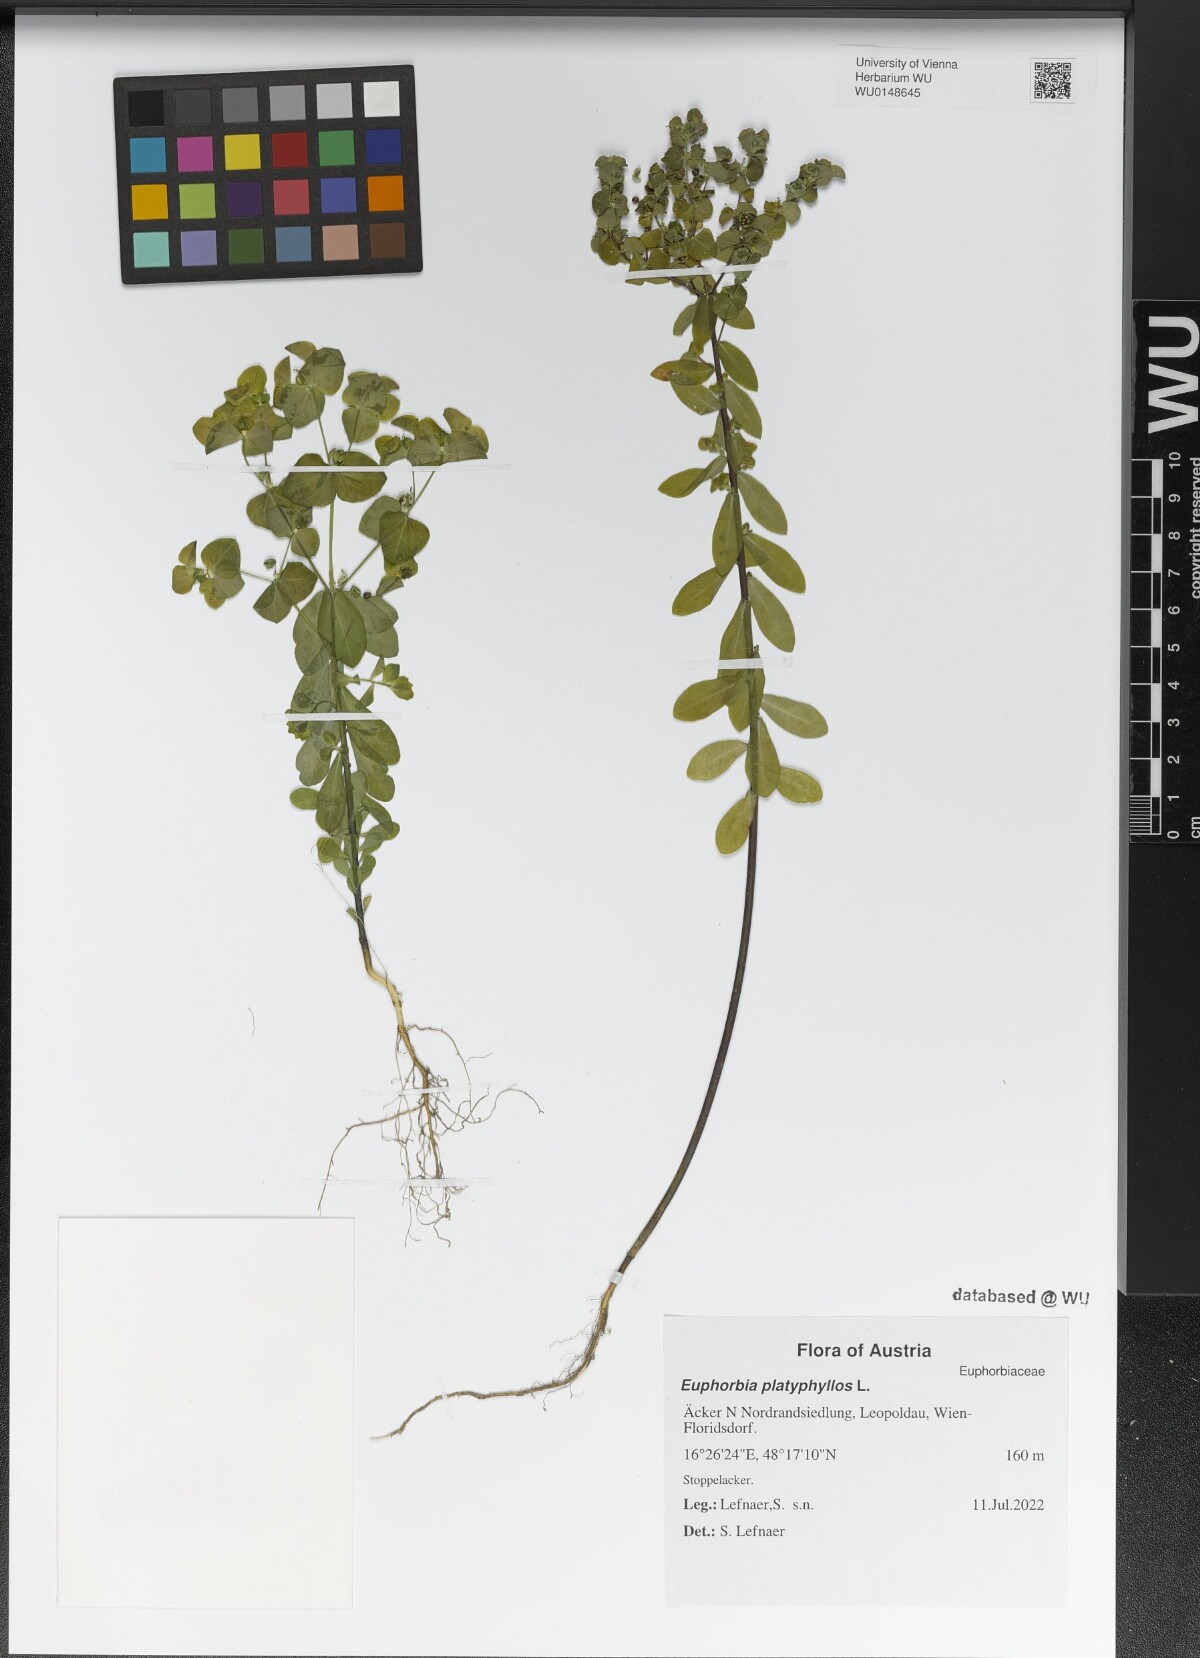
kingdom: Plantae
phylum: Tracheophyta
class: Magnoliopsida
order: Malpighiales
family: Euphorbiaceae
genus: Euphorbia
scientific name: Euphorbia platyphyllos
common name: Broad-leaved spurge
